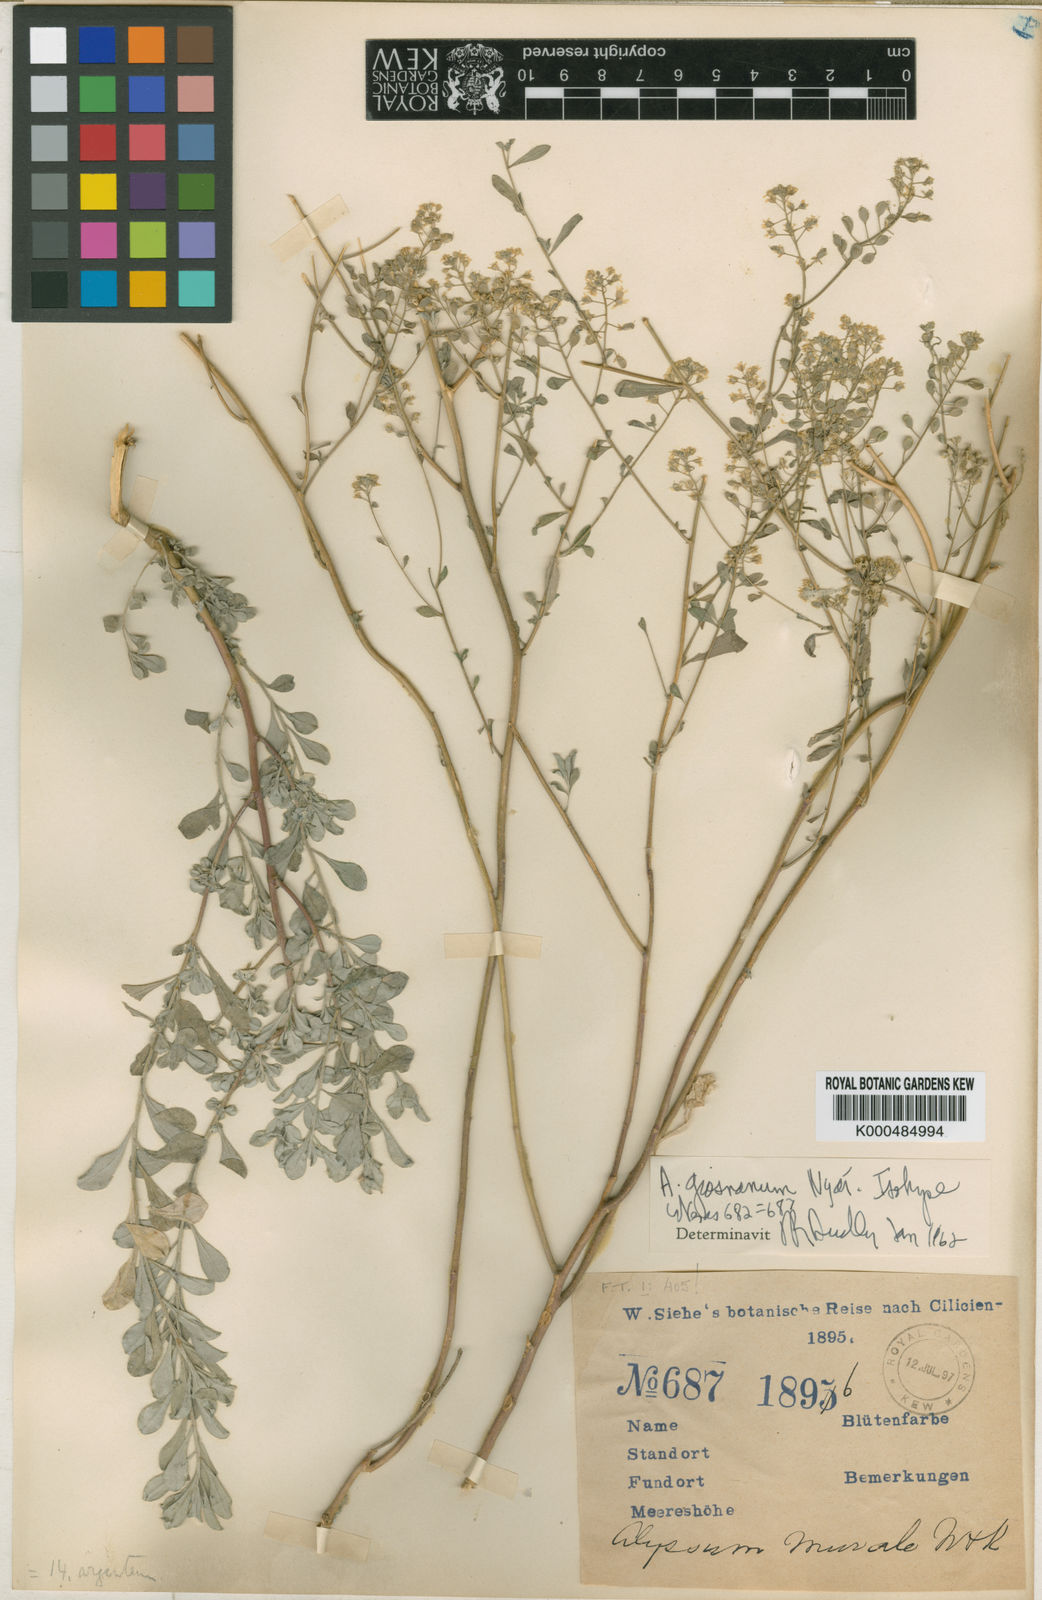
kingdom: Plantae
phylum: Tracheophyta
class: Magnoliopsida
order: Brassicales
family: Brassicaceae
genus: Odontarrhena
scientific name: Odontarrhena giosnana
